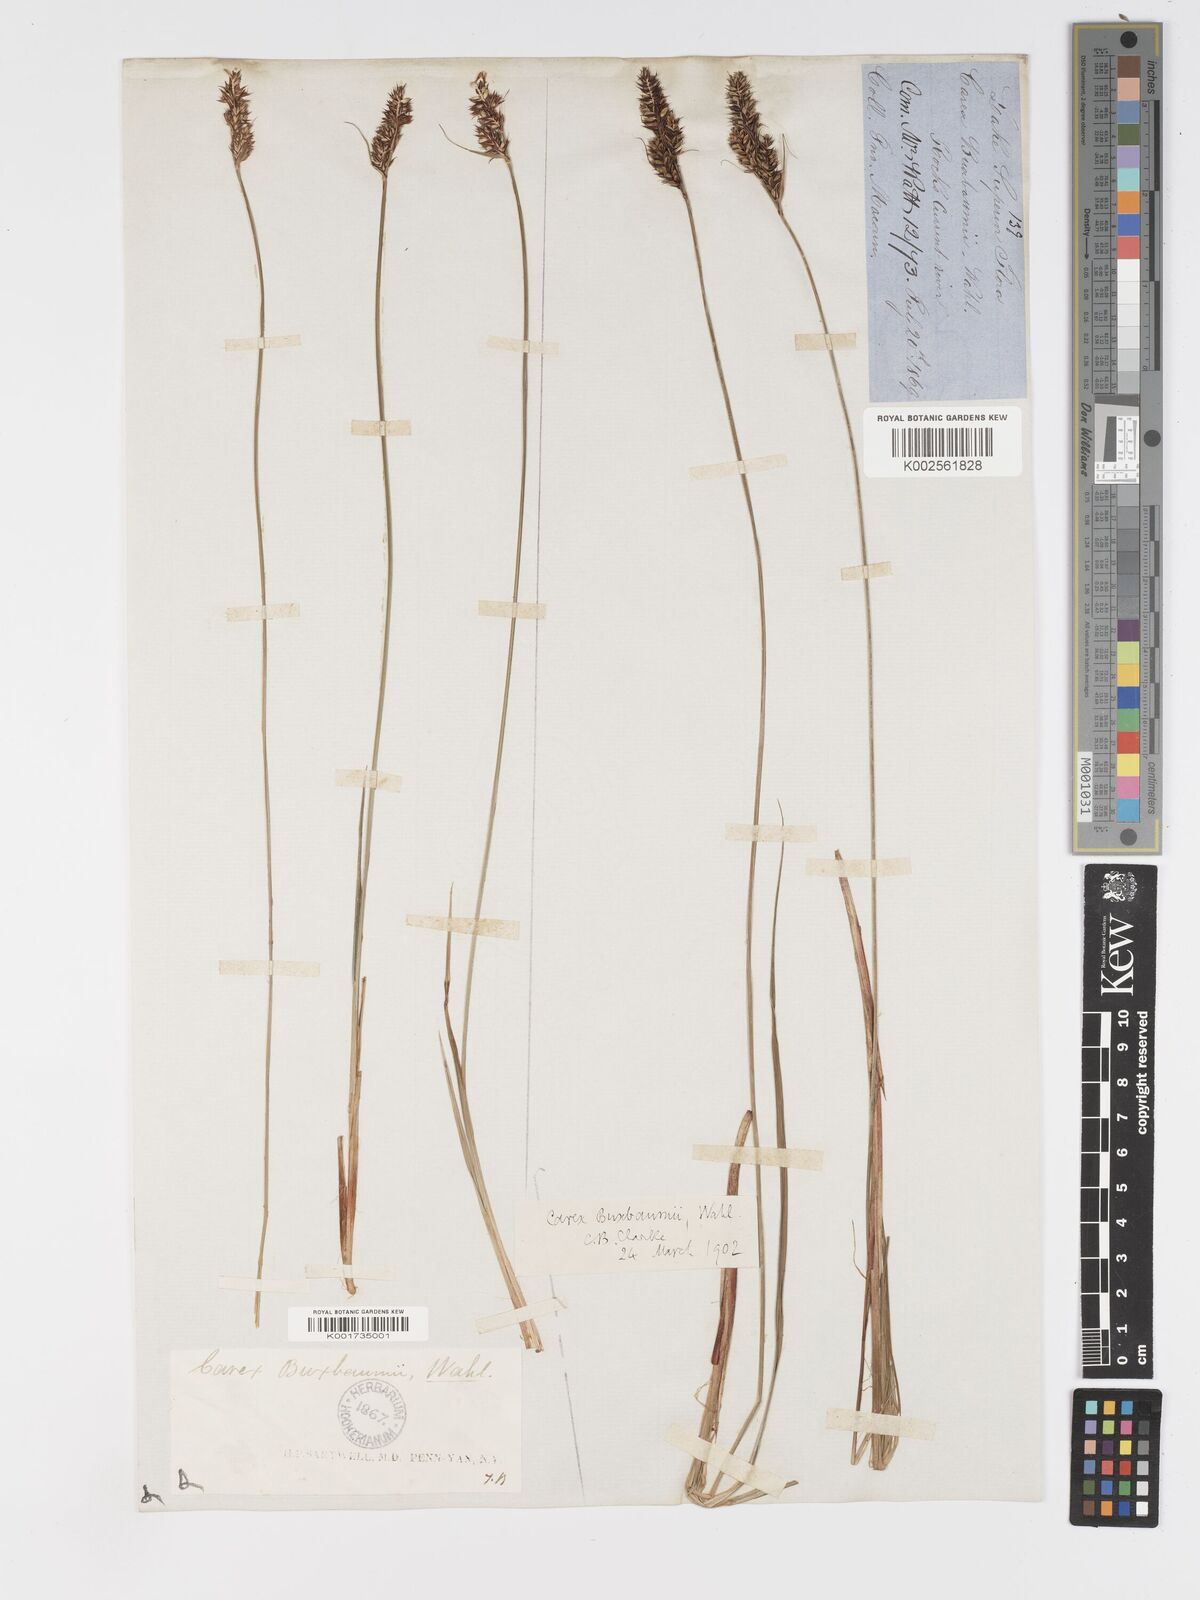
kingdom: Plantae
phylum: Tracheophyta
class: Liliopsida
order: Poales
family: Cyperaceae
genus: Carex
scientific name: Carex buxbaumii
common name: Club sedge
